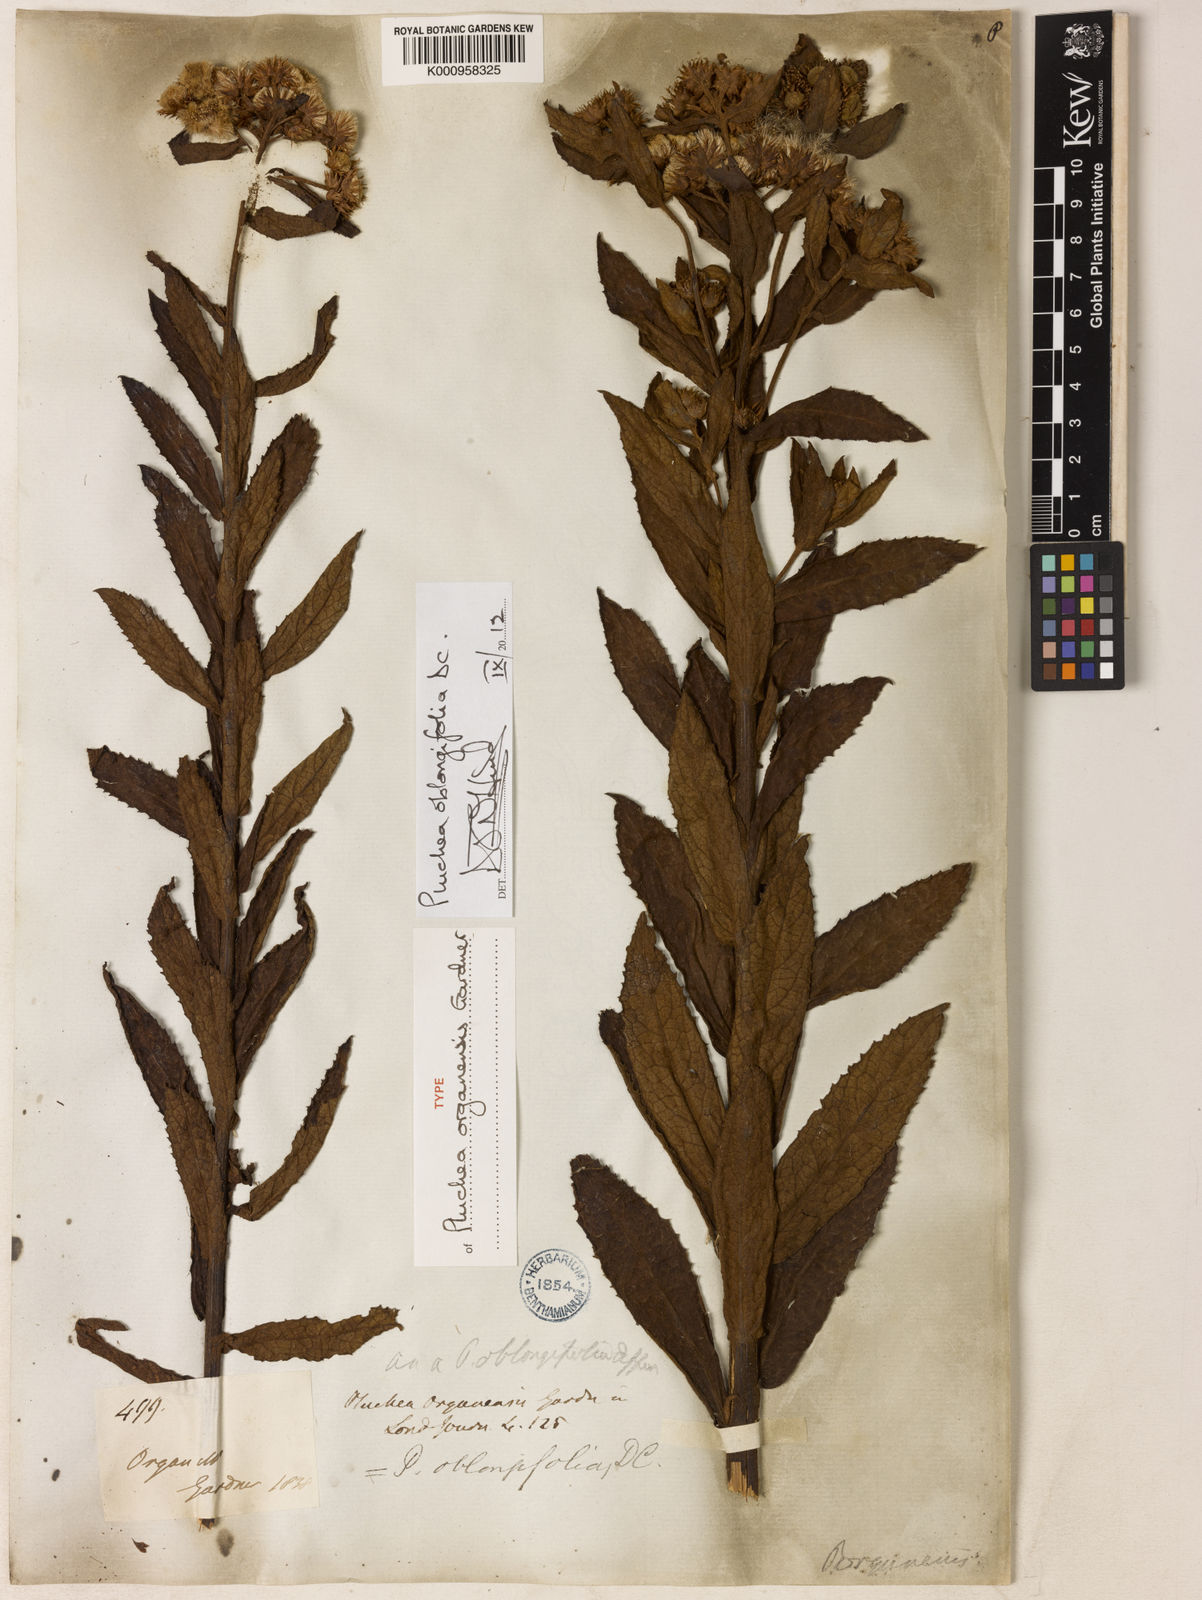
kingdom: Plantae
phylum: Tracheophyta
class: Magnoliopsida
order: Asterales
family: Asteraceae
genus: Pluchea
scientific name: Pluchea oblongifolia
